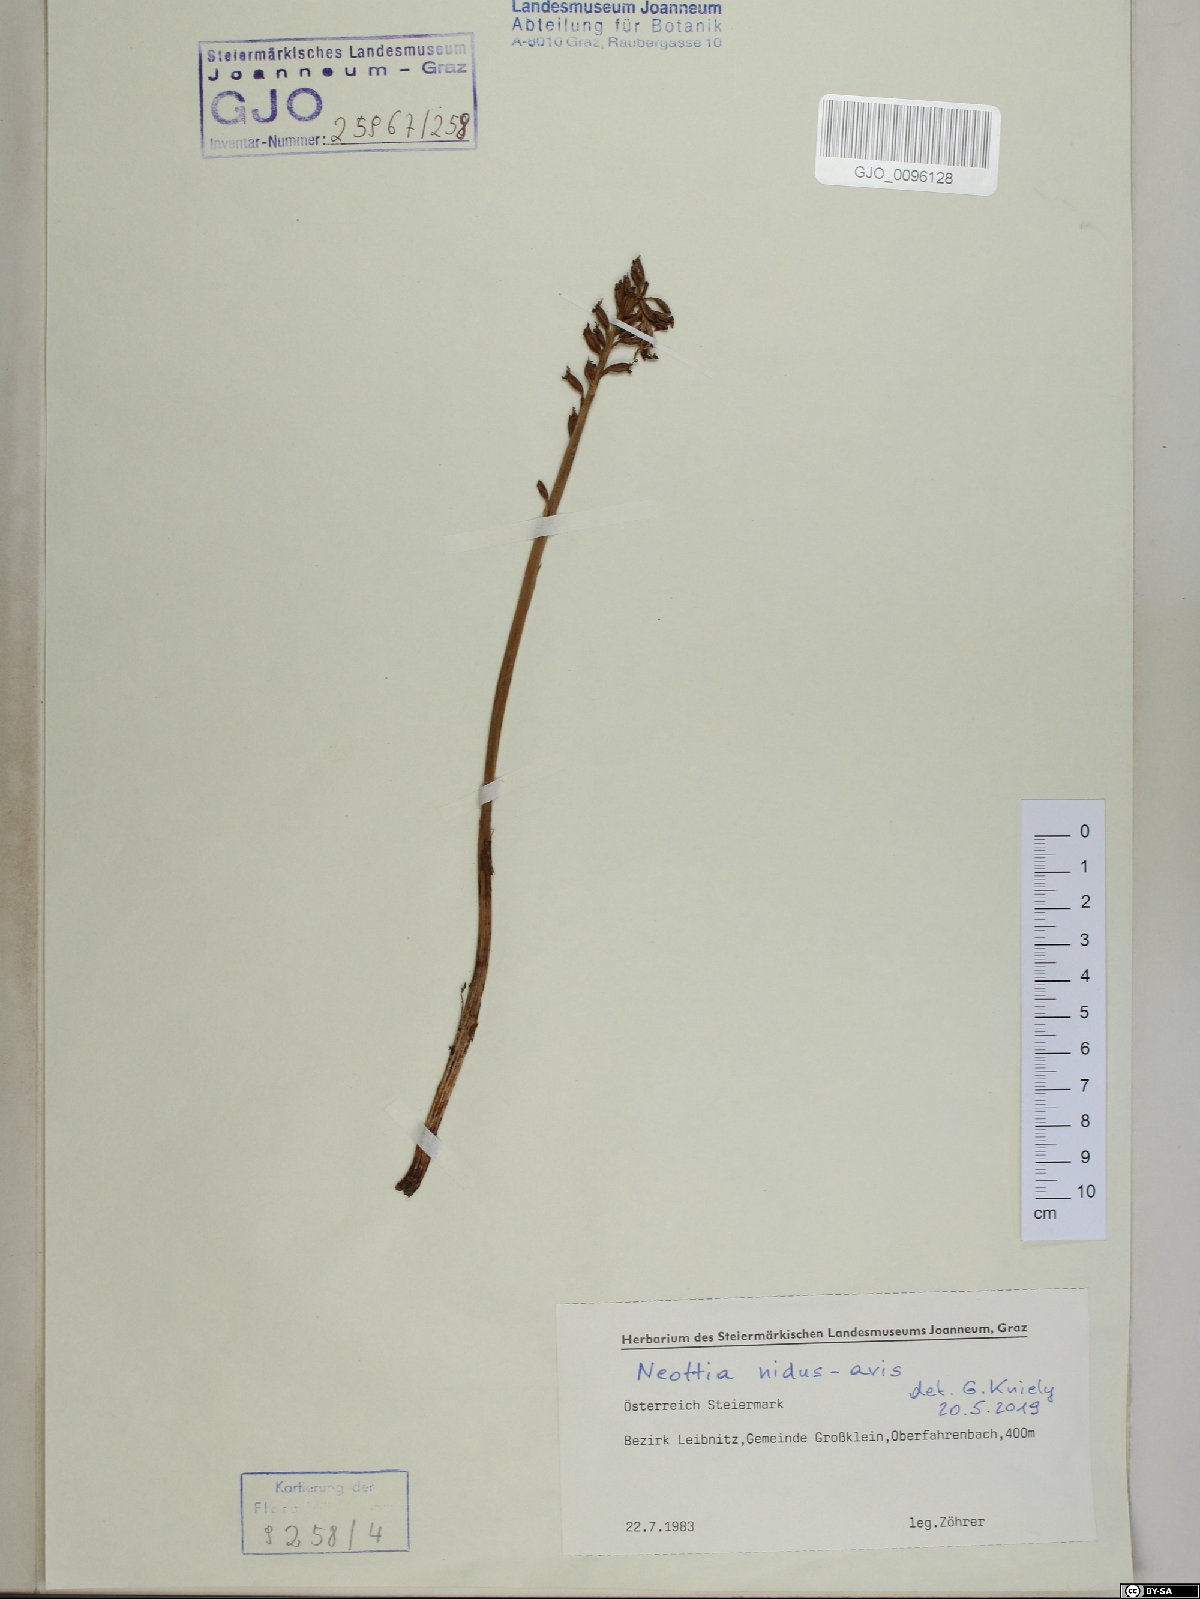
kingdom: Plantae
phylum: Tracheophyta
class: Liliopsida
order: Asparagales
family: Orchidaceae
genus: Neottia
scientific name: Neottia nidus-avis
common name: Bird's-nest orchid
